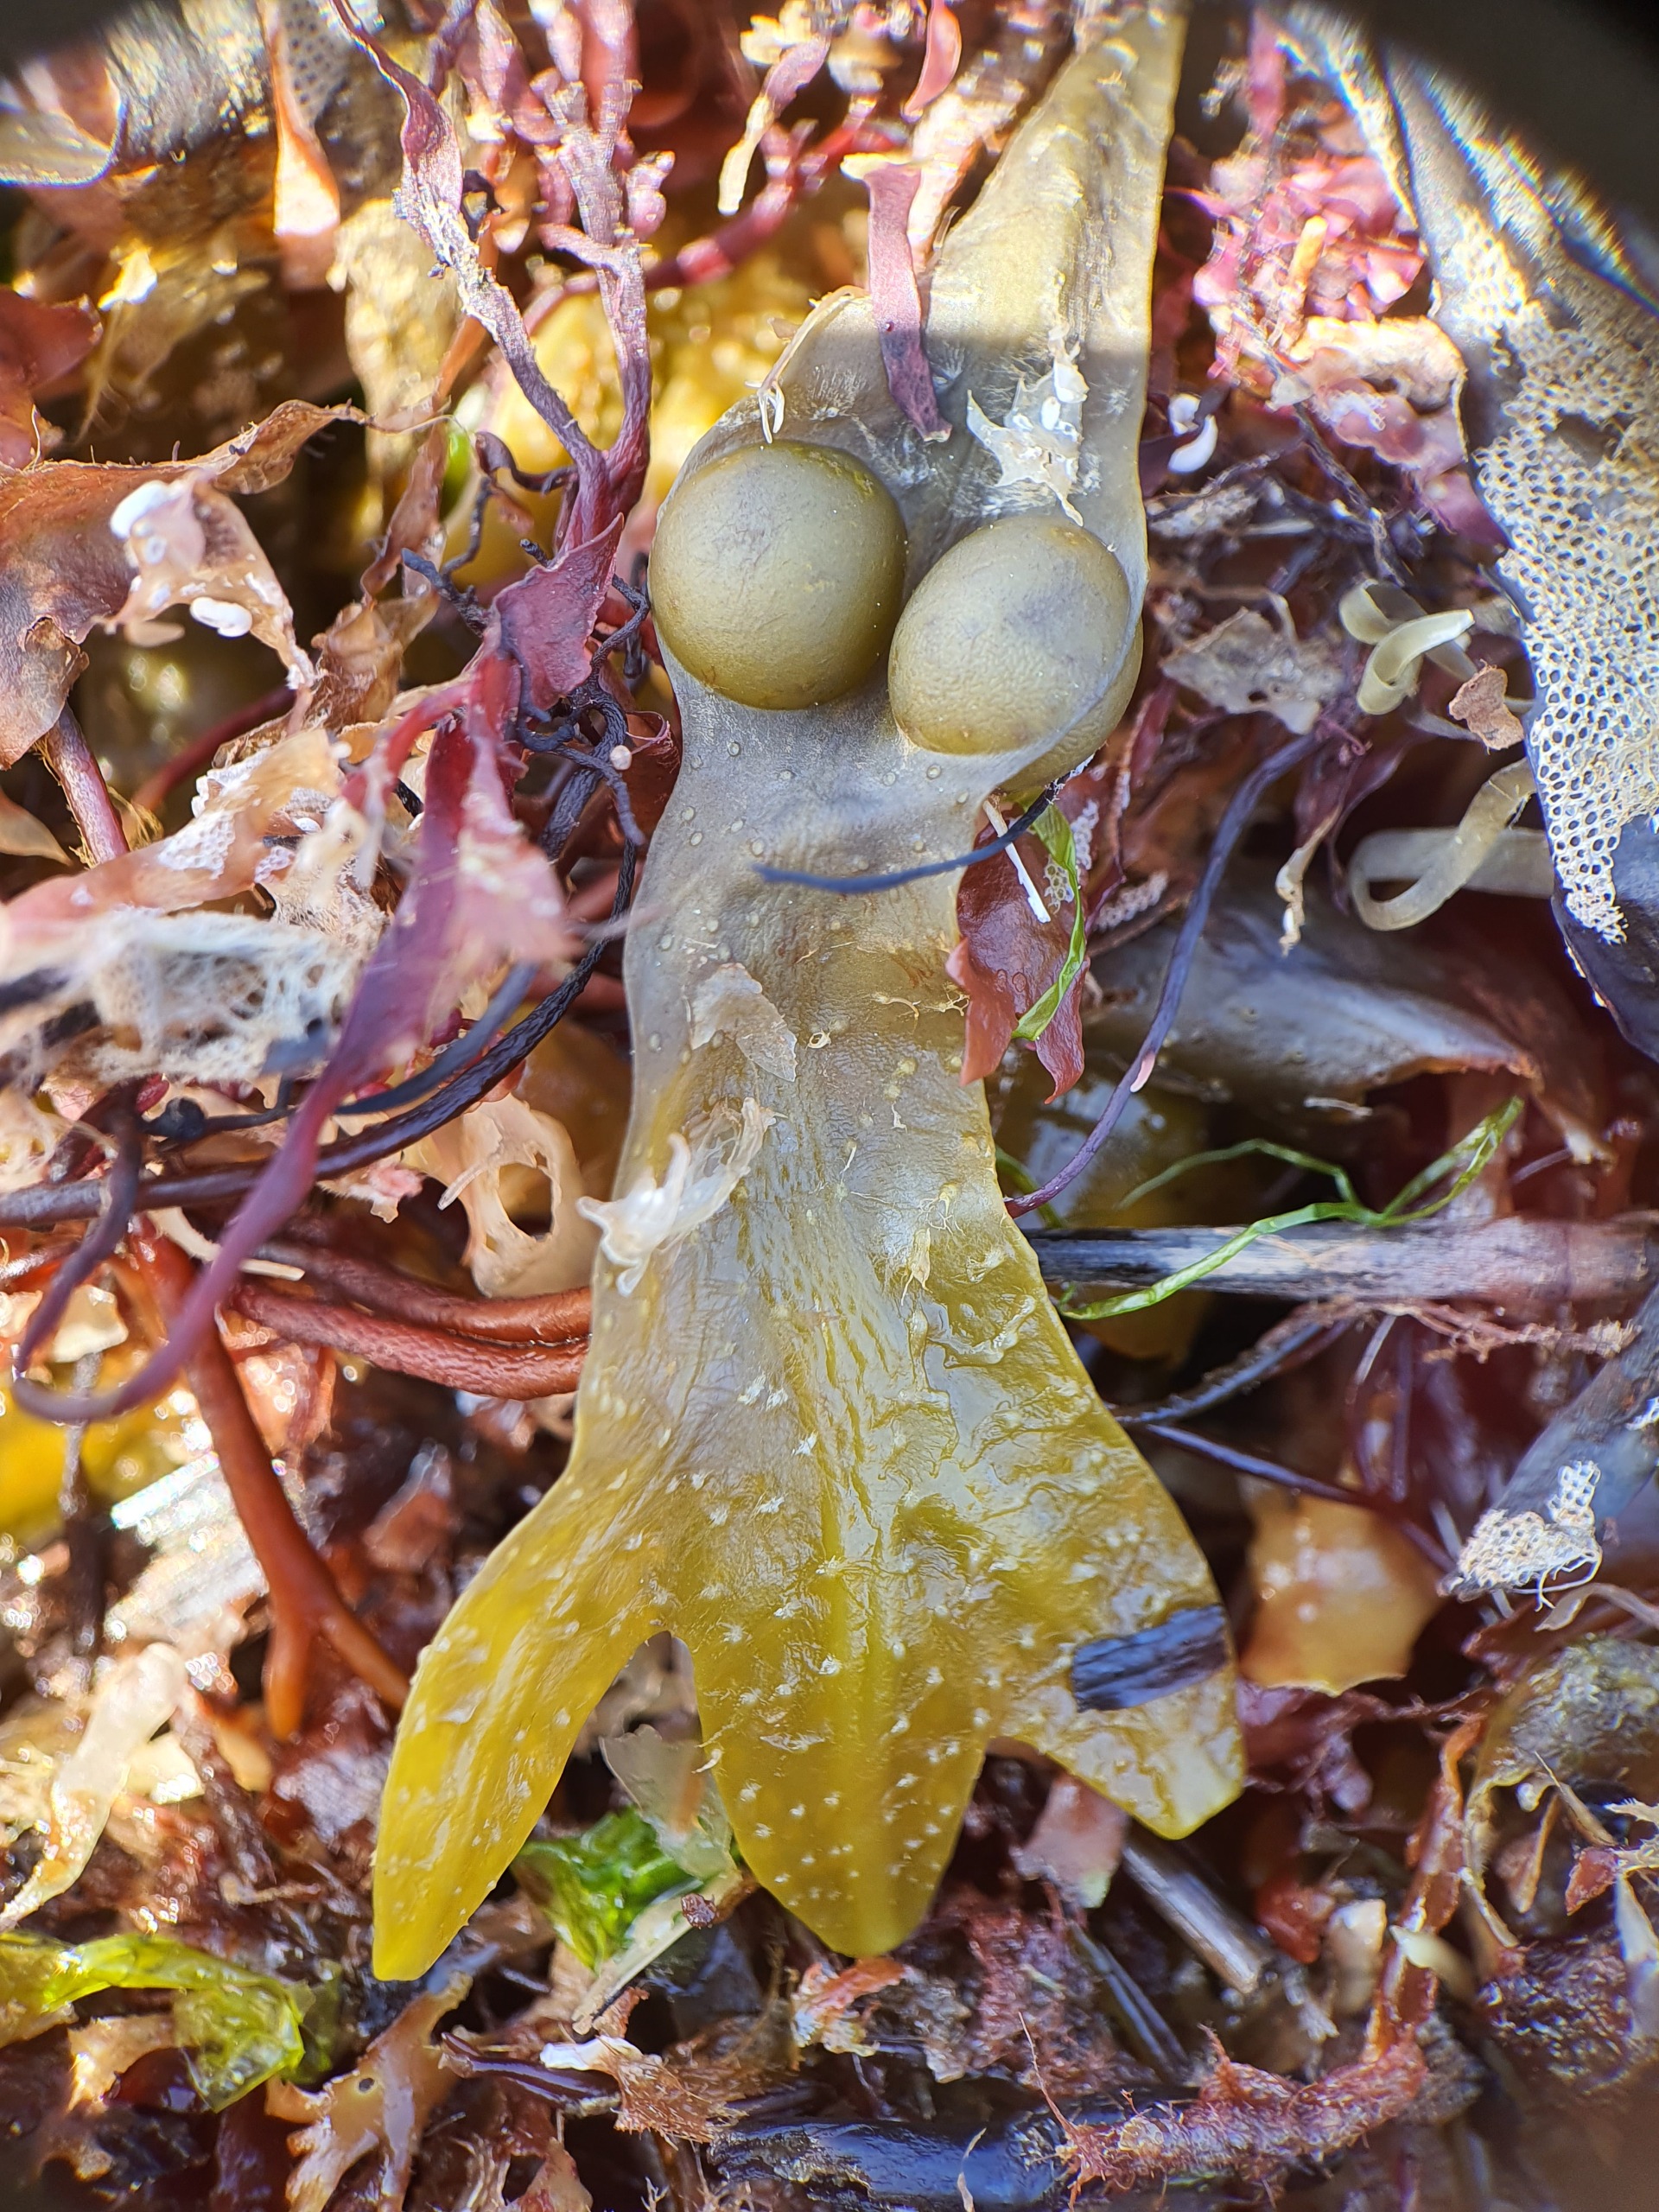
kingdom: Chromista
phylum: Ochrophyta
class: Phaeophyceae
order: Fucales
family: Fucaceae
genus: Fucus
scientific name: Fucus vesiculosus
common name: Blæretang
